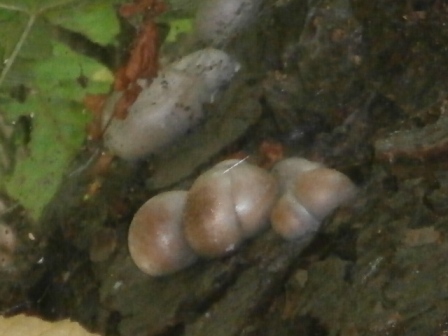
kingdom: Protozoa
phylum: Mycetozoa
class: Myxomycetes
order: Cribrariales
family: Tubiferaceae
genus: Lycogala
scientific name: Lycogala flavofuscum
